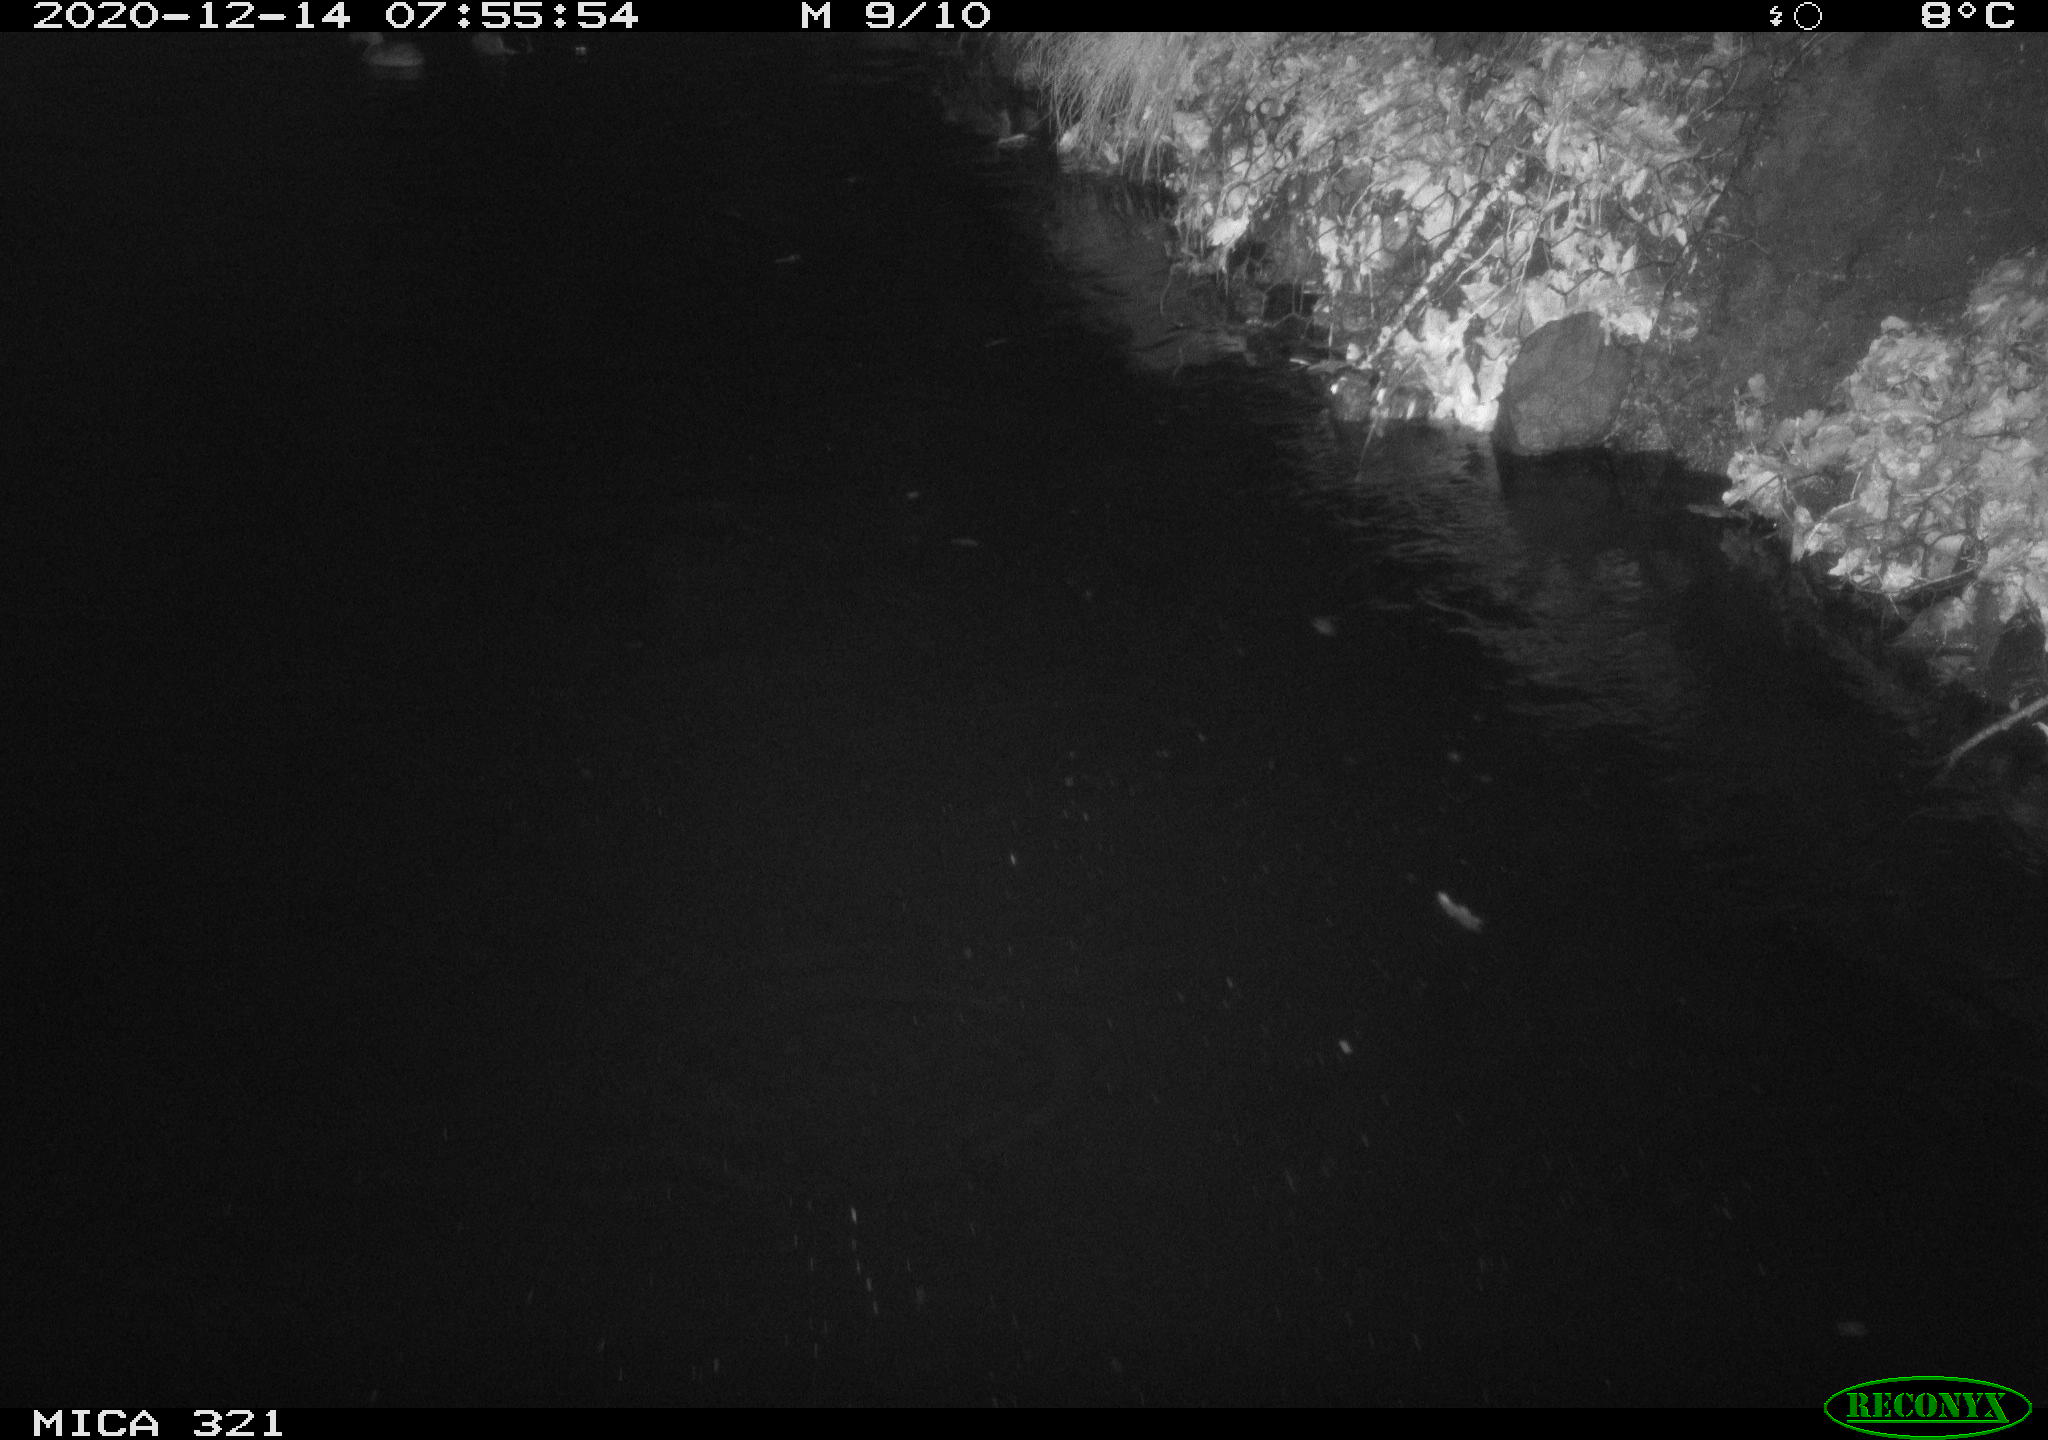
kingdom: Animalia
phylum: Chordata
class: Aves
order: Anseriformes
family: Anatidae
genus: Anas
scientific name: Anas platyrhynchos
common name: Mallard
